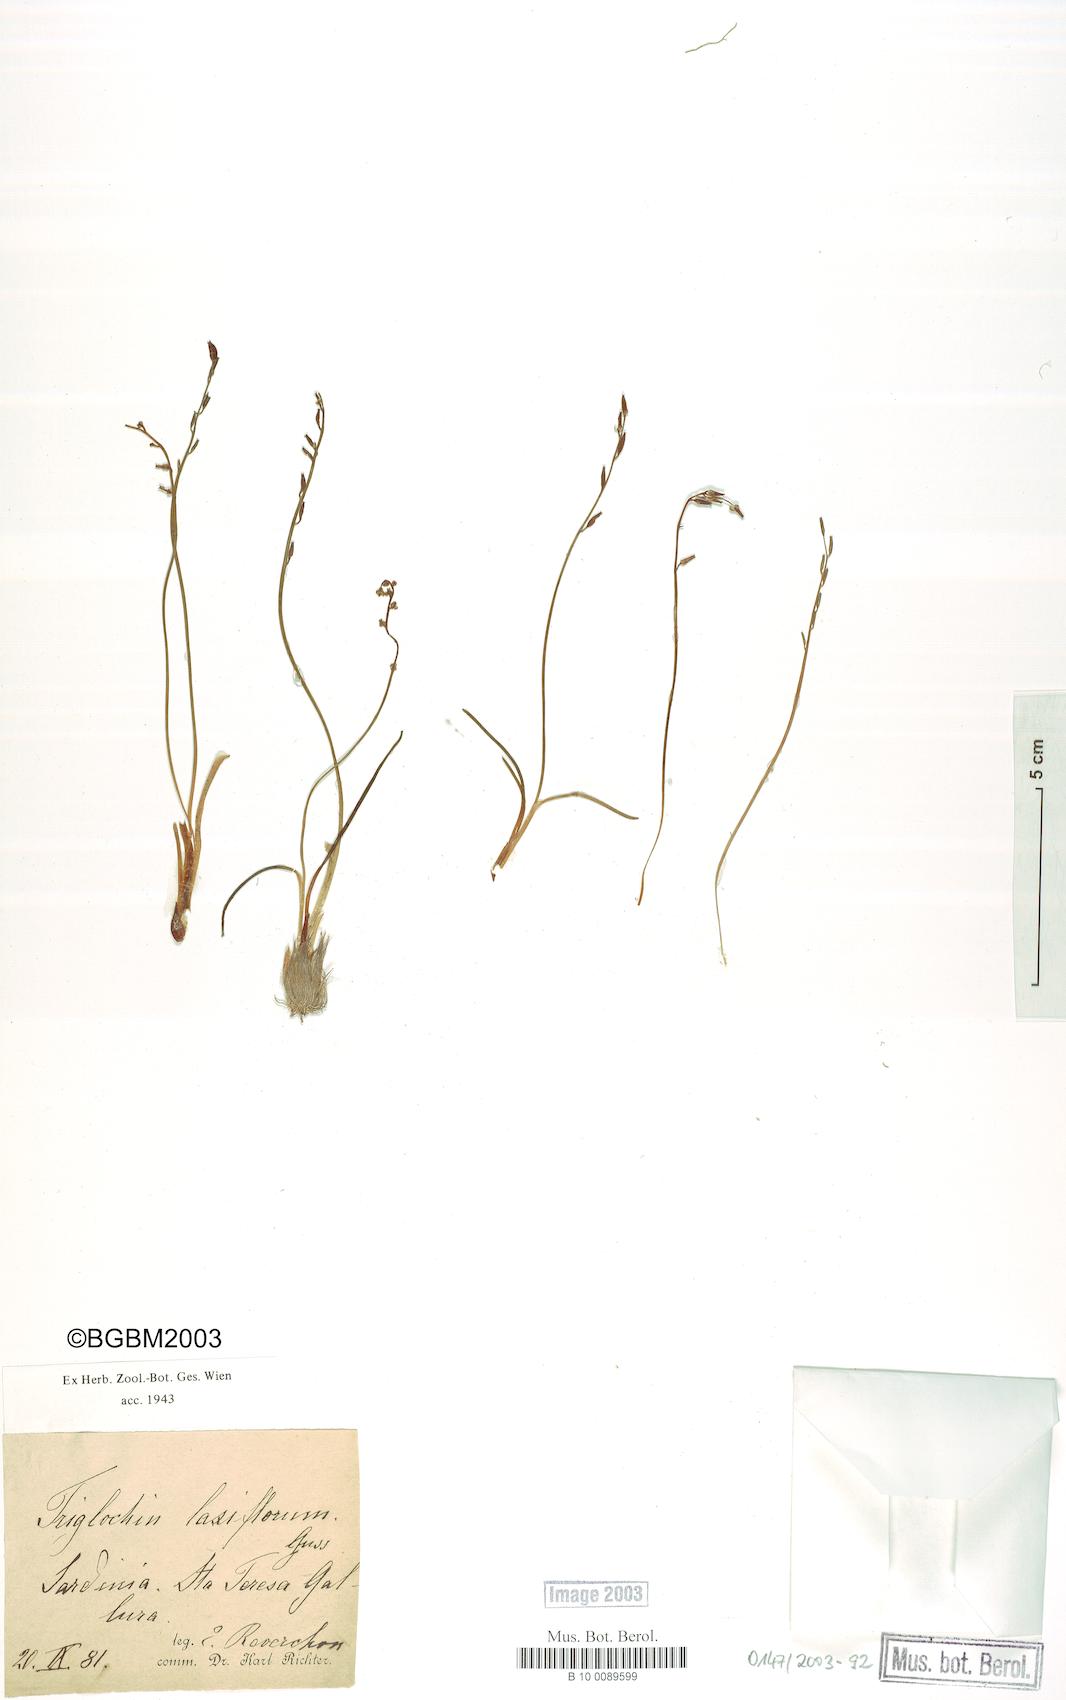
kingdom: Plantae
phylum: Tracheophyta
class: Liliopsida
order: Alismatales
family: Juncaginaceae
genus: Triglochin
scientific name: Triglochin laxiflora
